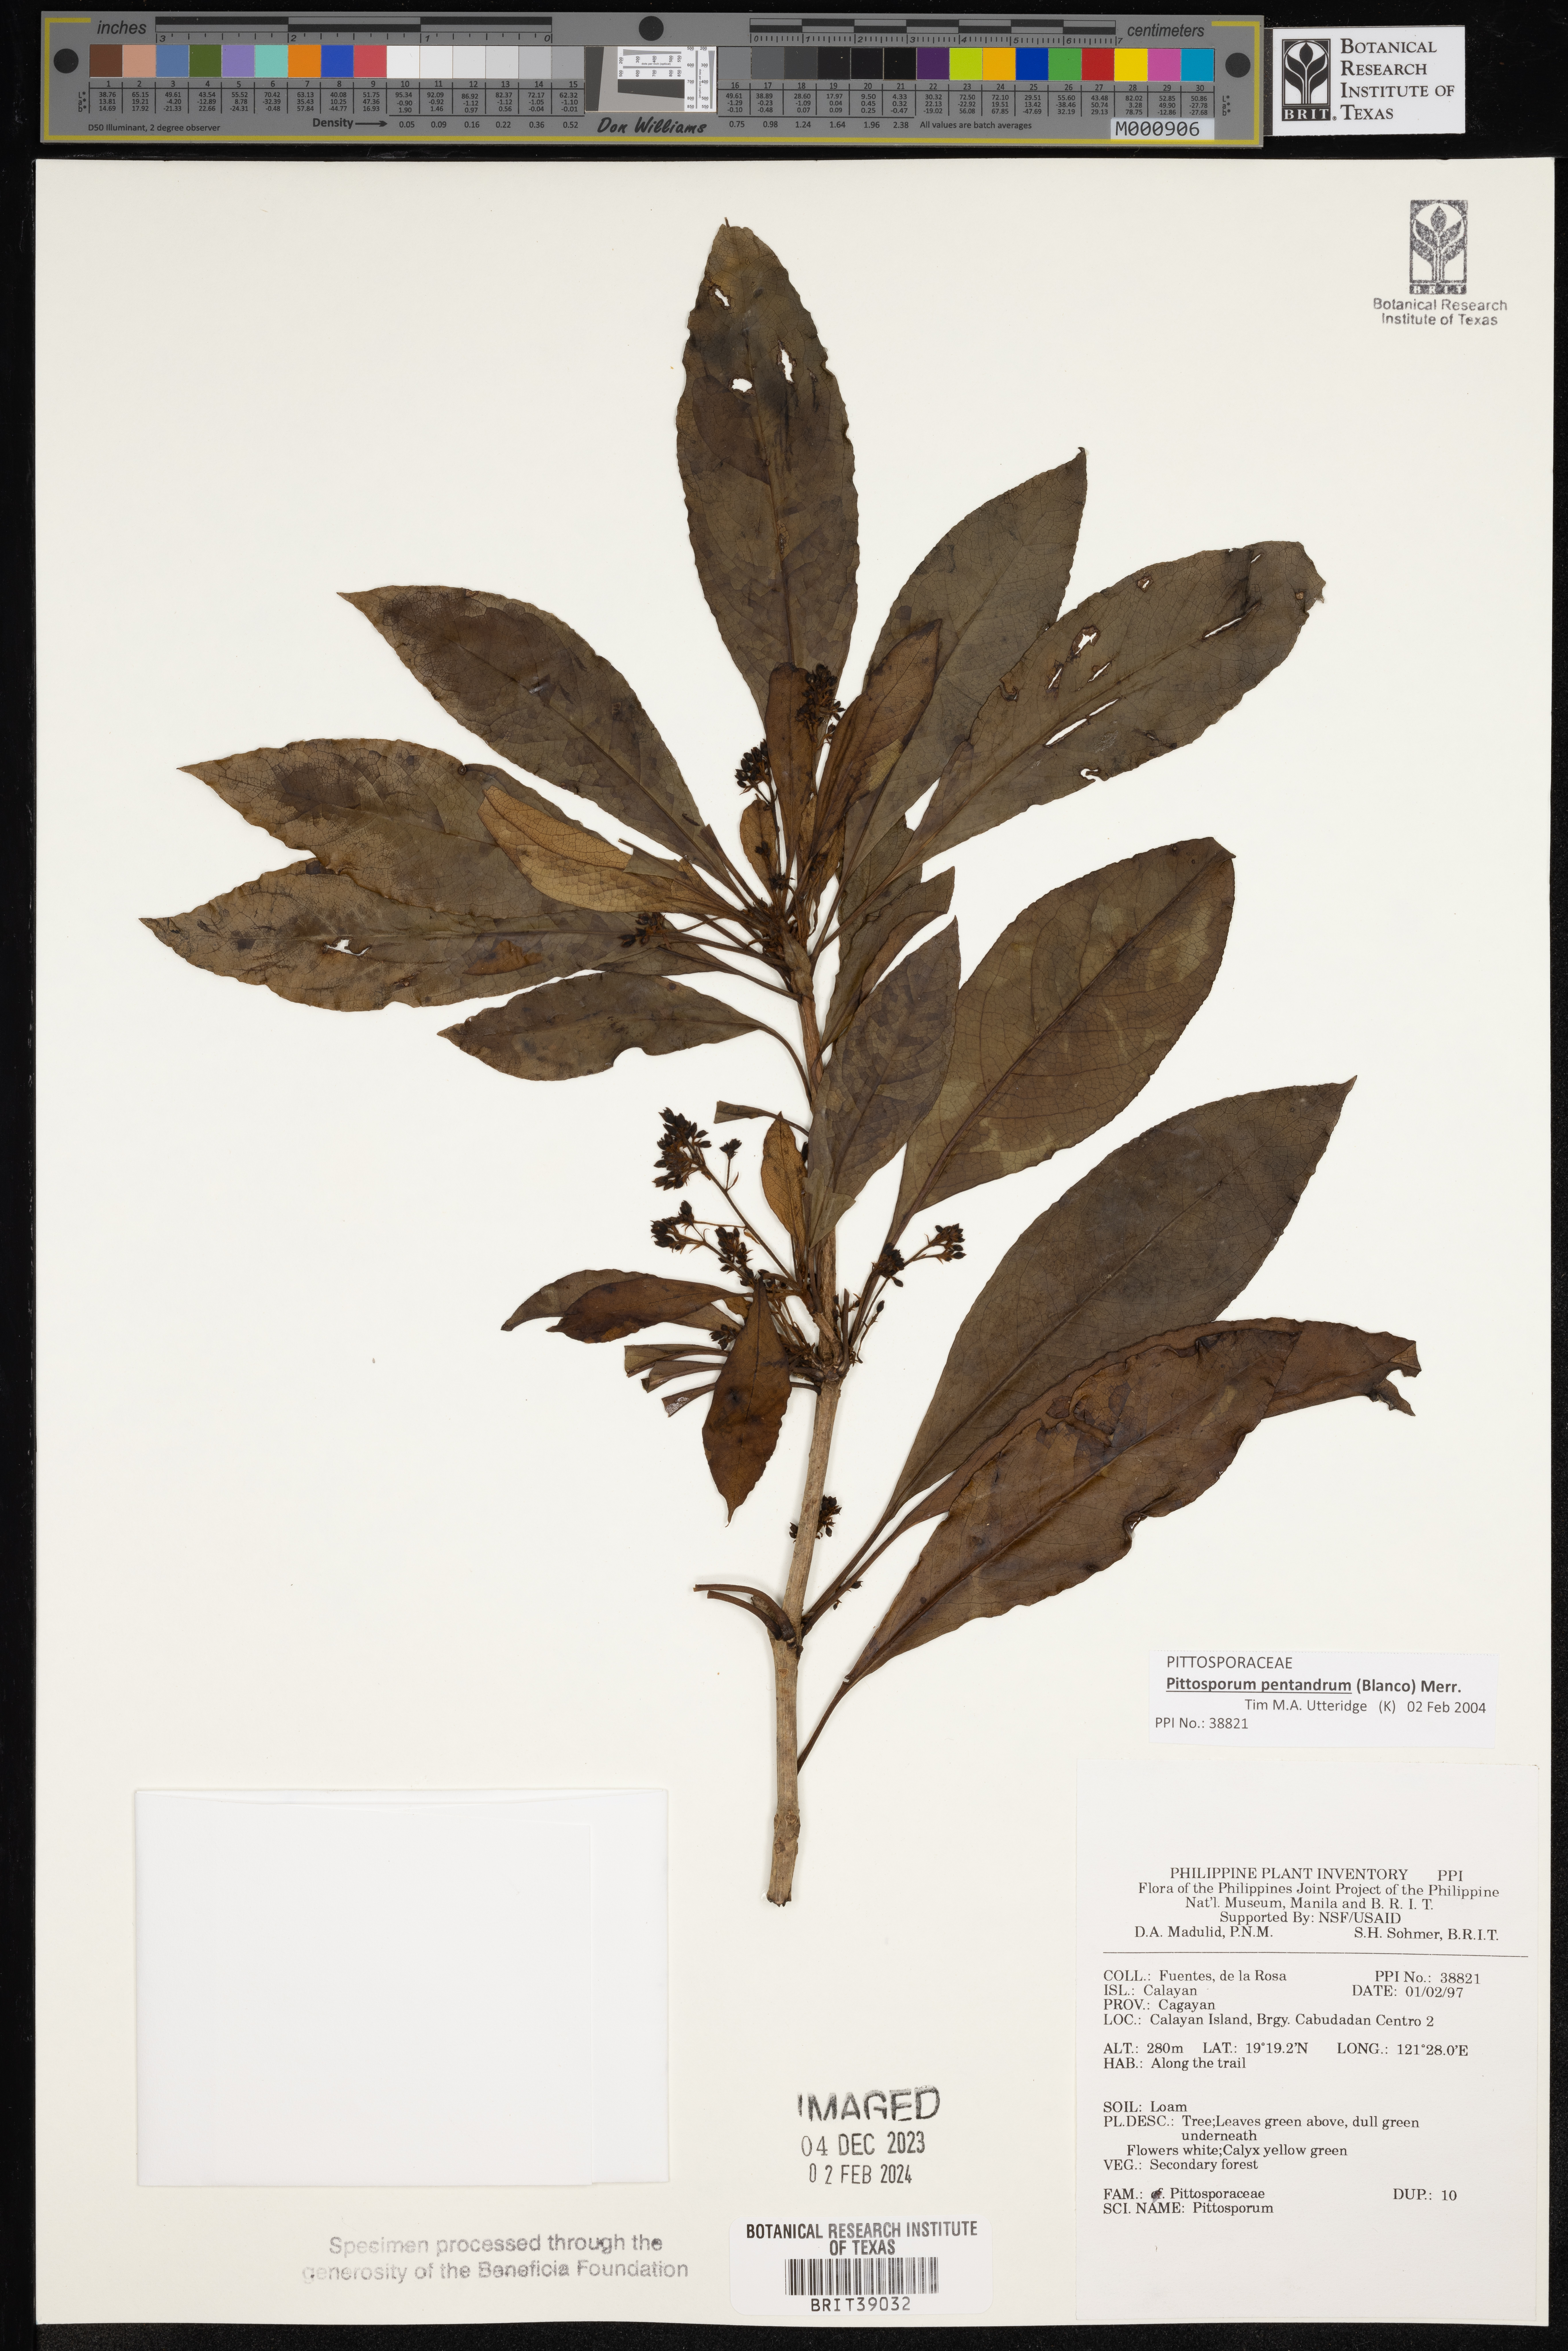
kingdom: Plantae
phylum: Tracheophyta
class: Magnoliopsida
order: Apiales
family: Pittosporaceae
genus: Pittosporum
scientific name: Pittosporum
